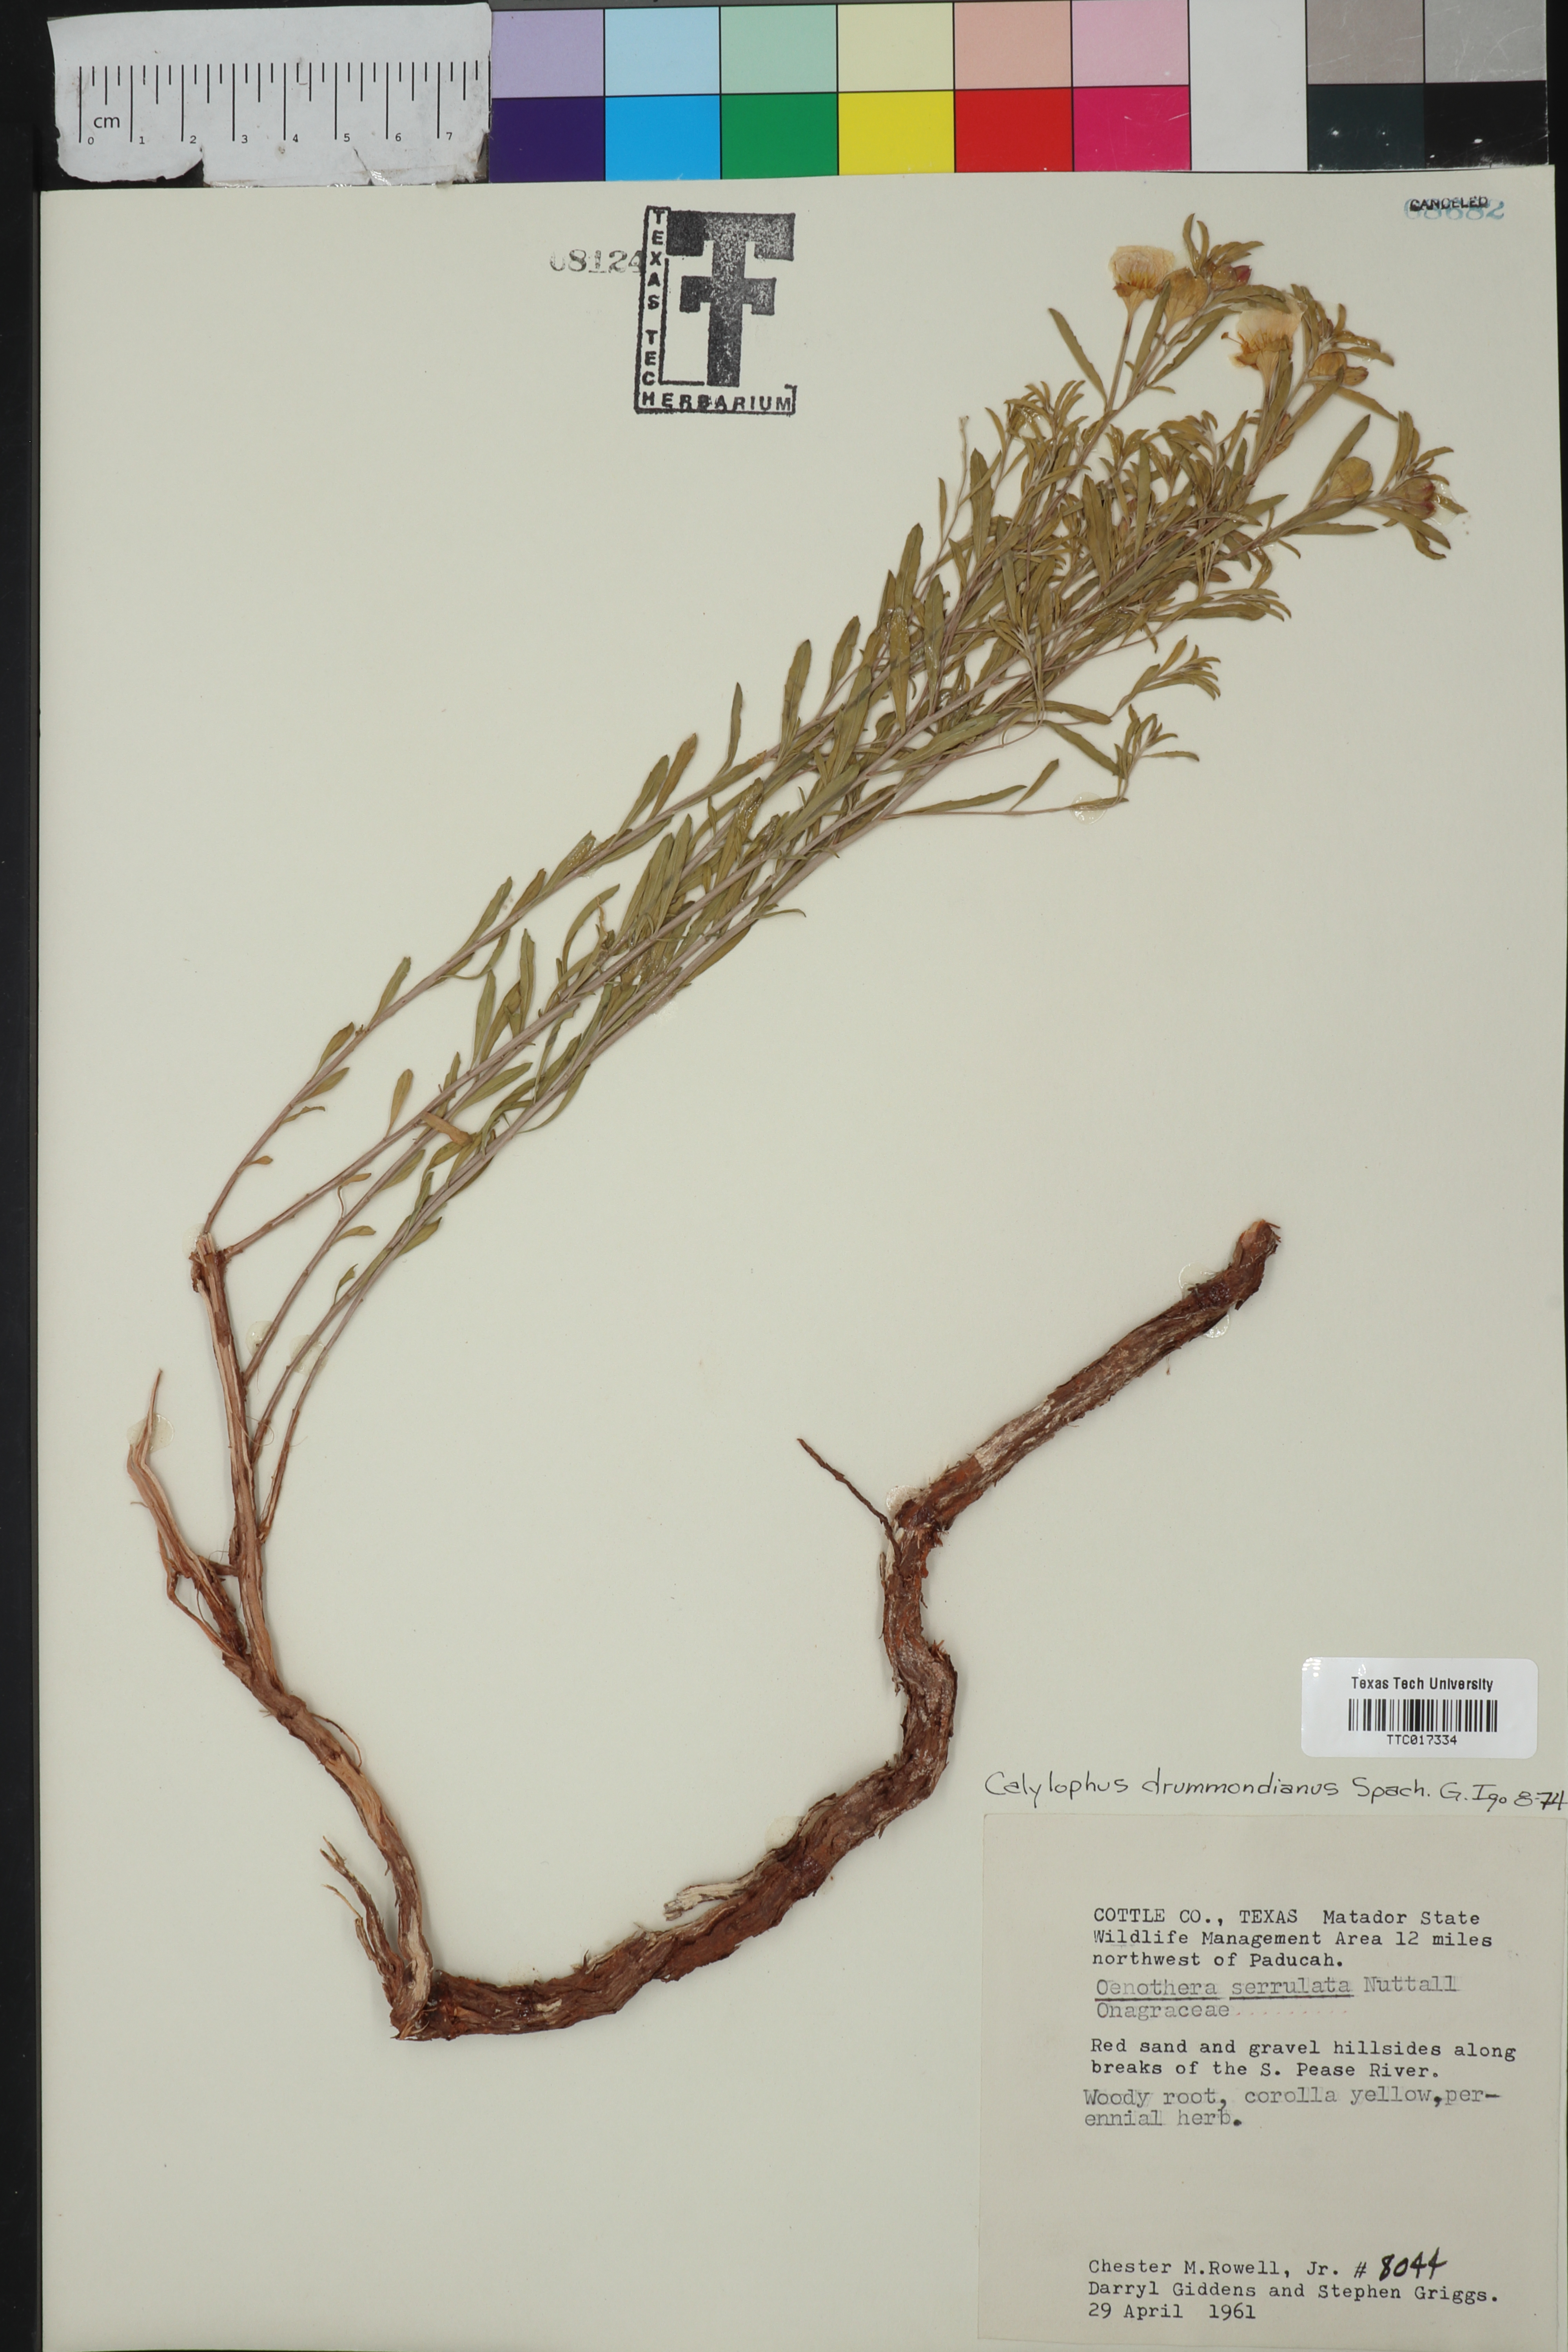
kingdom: Plantae
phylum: Tracheophyta
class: Magnoliopsida
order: Myrtales
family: Onagraceae
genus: Oenothera
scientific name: Oenothera serrulata
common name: Half-shrub calylophus
